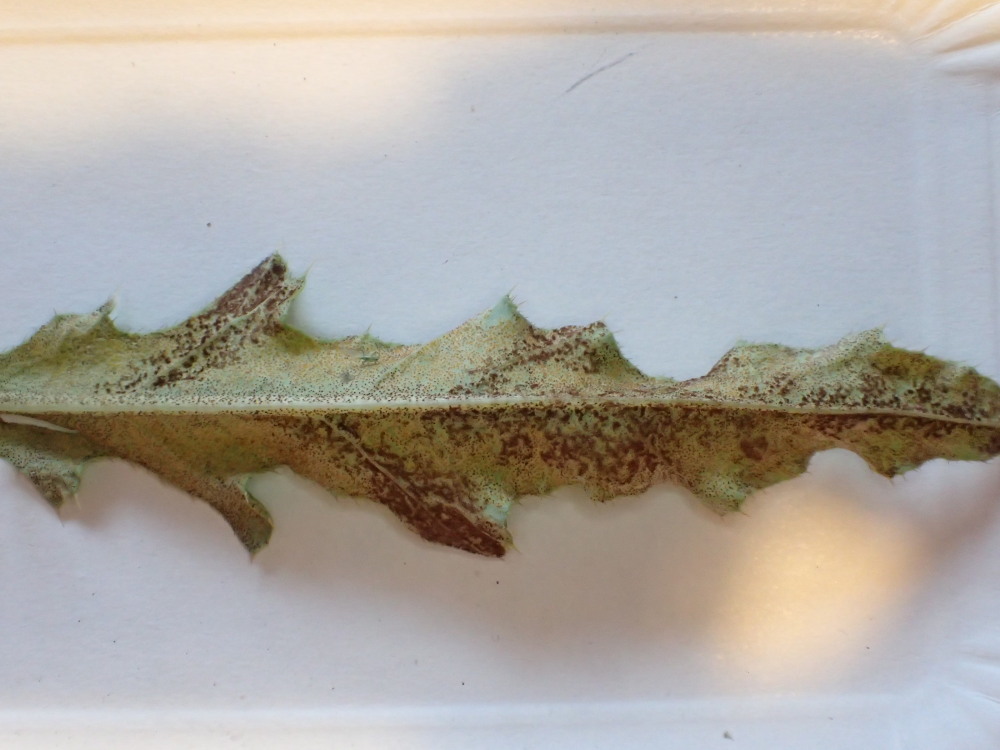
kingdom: Fungi
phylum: Basidiomycota
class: Pucciniomycetes
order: Pucciniales
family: Pucciniaceae
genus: Puccinia
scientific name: Puccinia suaveolens
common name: tidsel-tvecellerust
